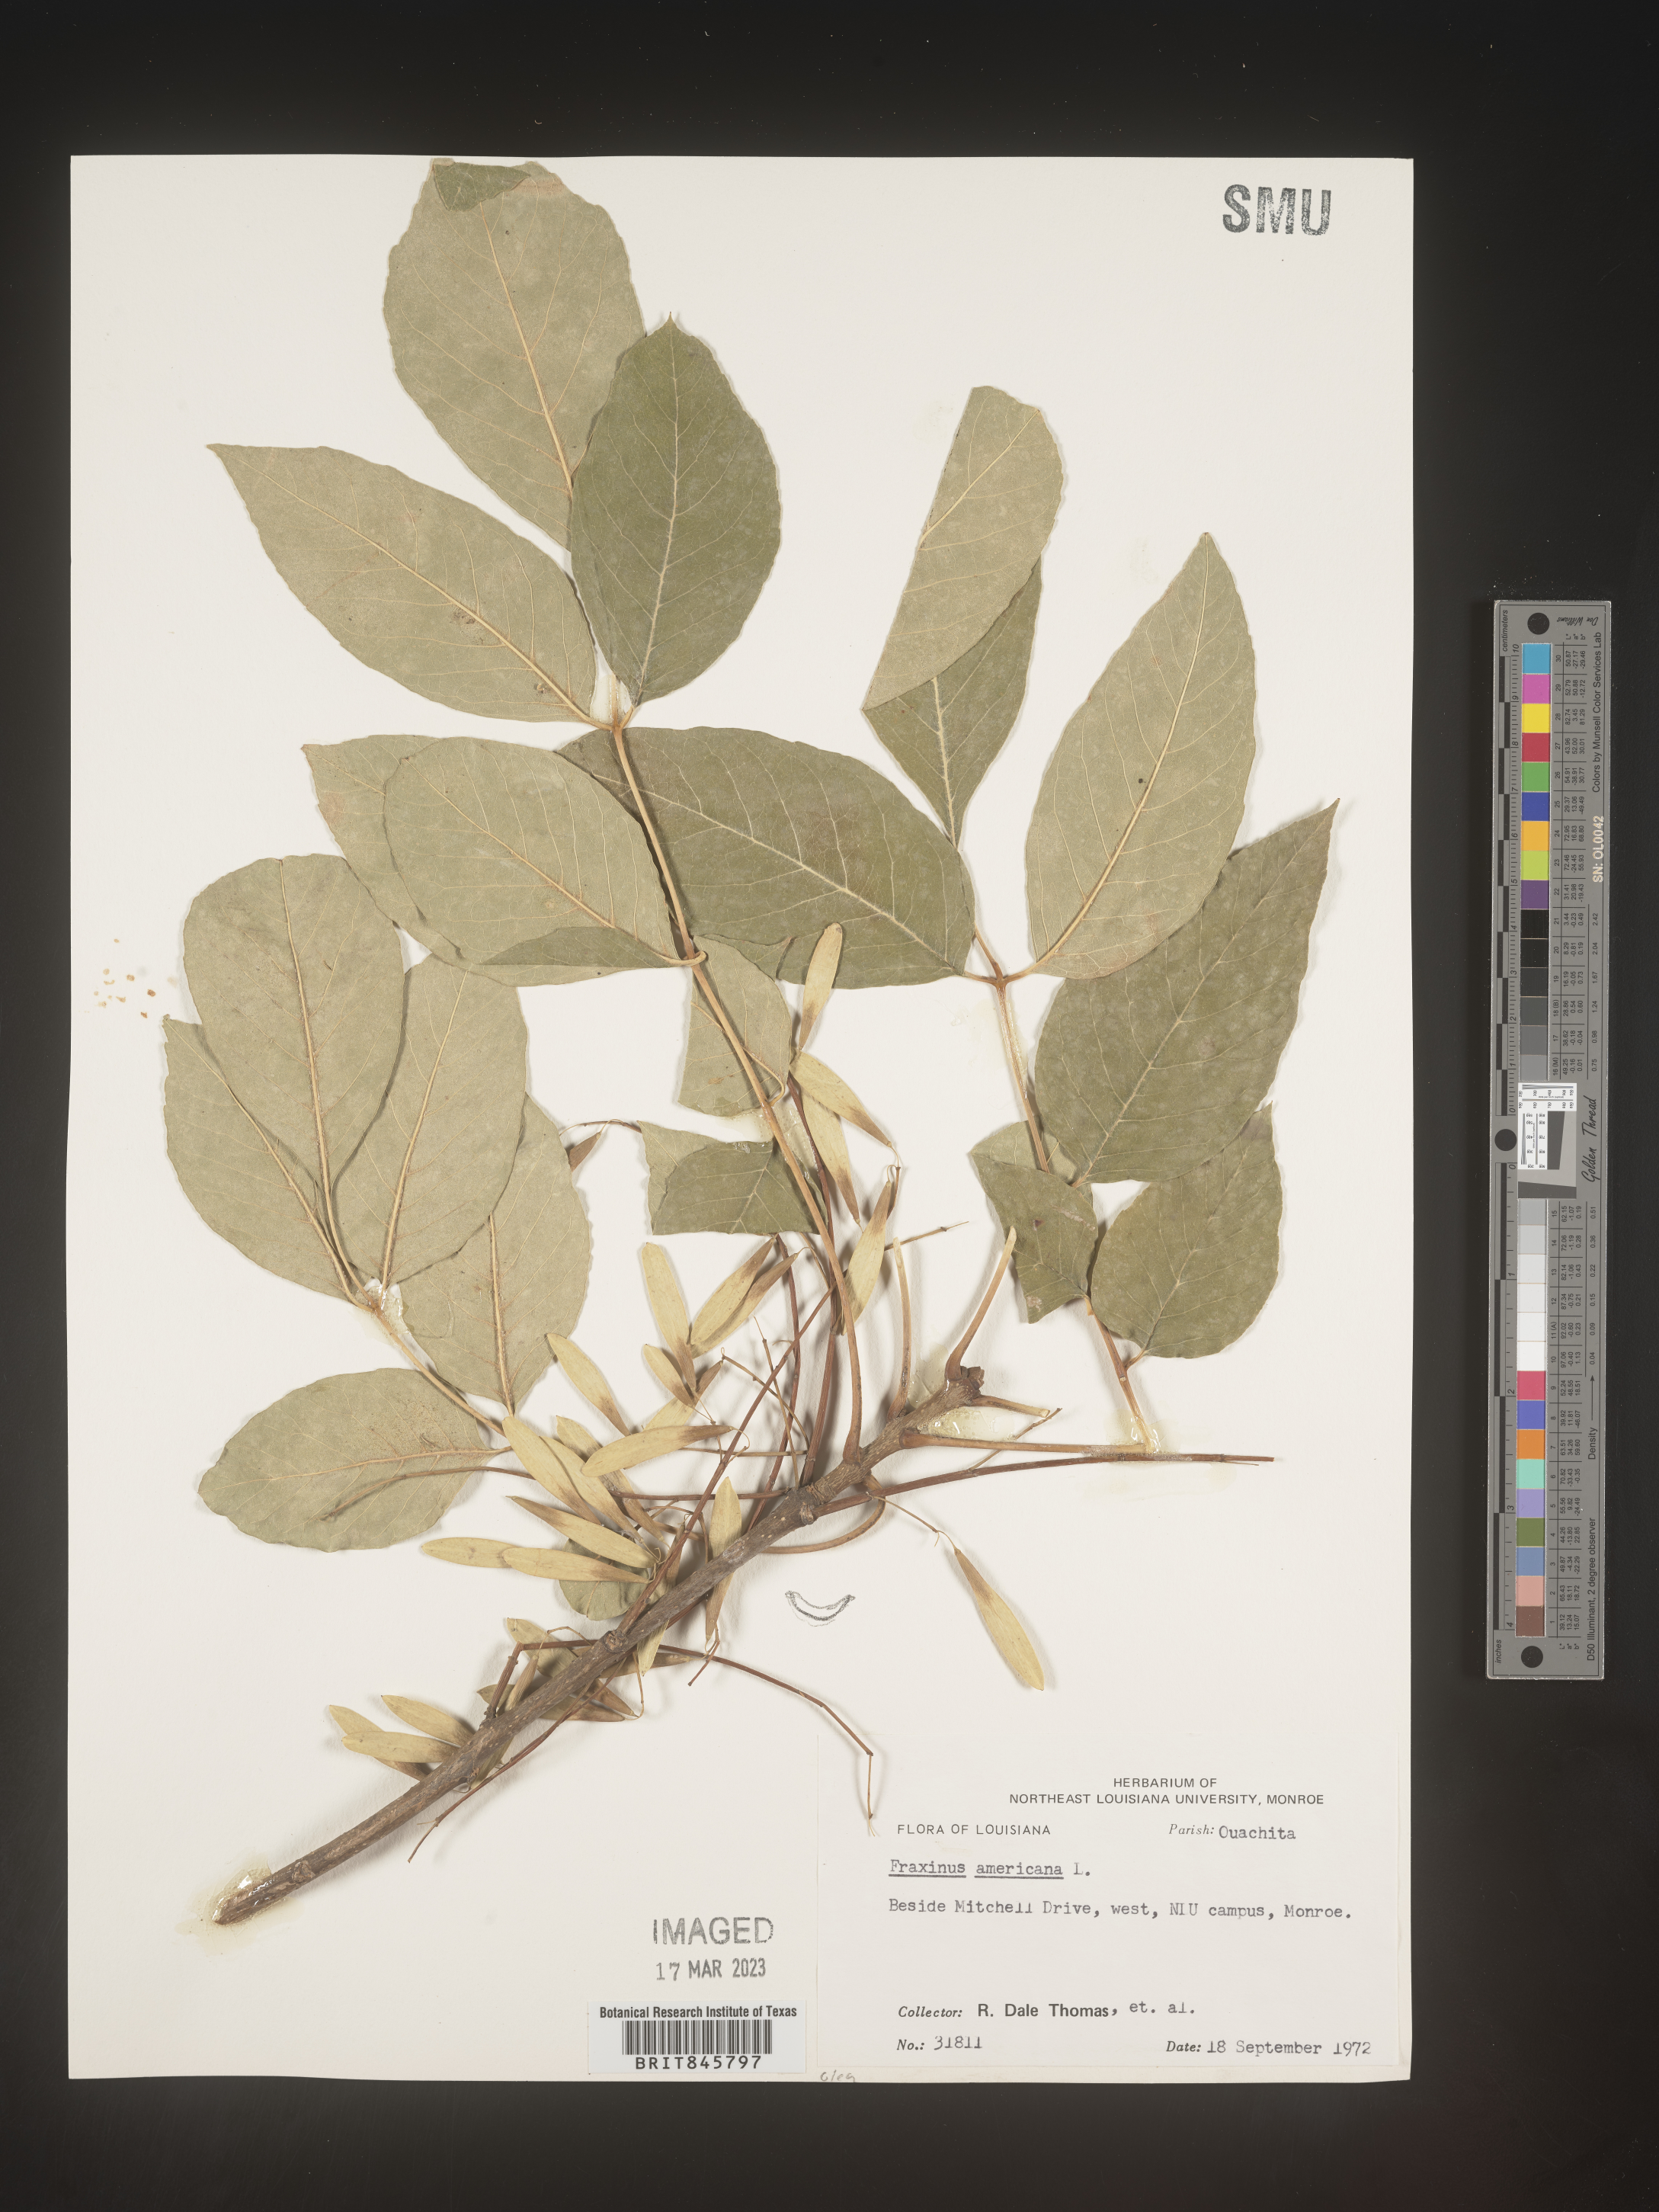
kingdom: Plantae
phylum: Tracheophyta
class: Magnoliopsida
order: Lamiales
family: Oleaceae
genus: Fraxinus
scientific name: Fraxinus americana
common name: White ash
